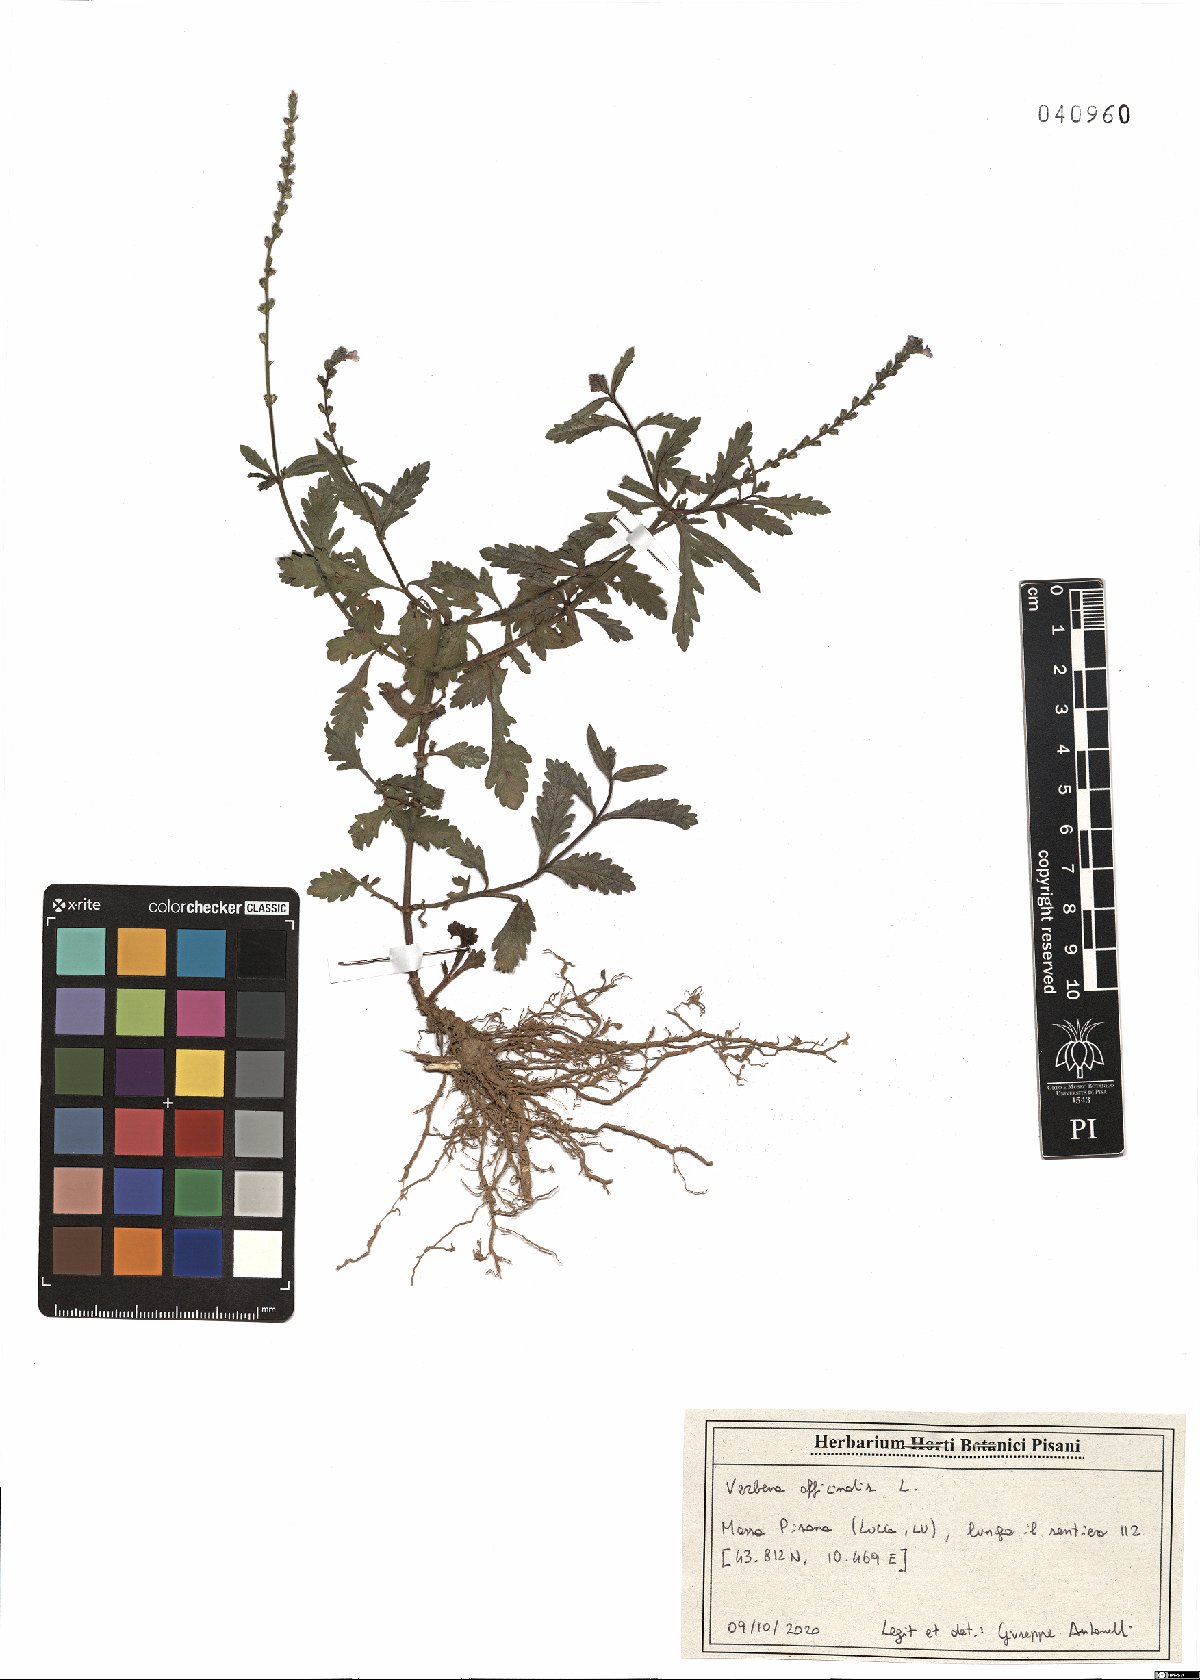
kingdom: Plantae
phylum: Tracheophyta
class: Magnoliopsida
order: Lamiales
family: Verbenaceae
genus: Verbena
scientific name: Verbena officinalis
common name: Vervain
